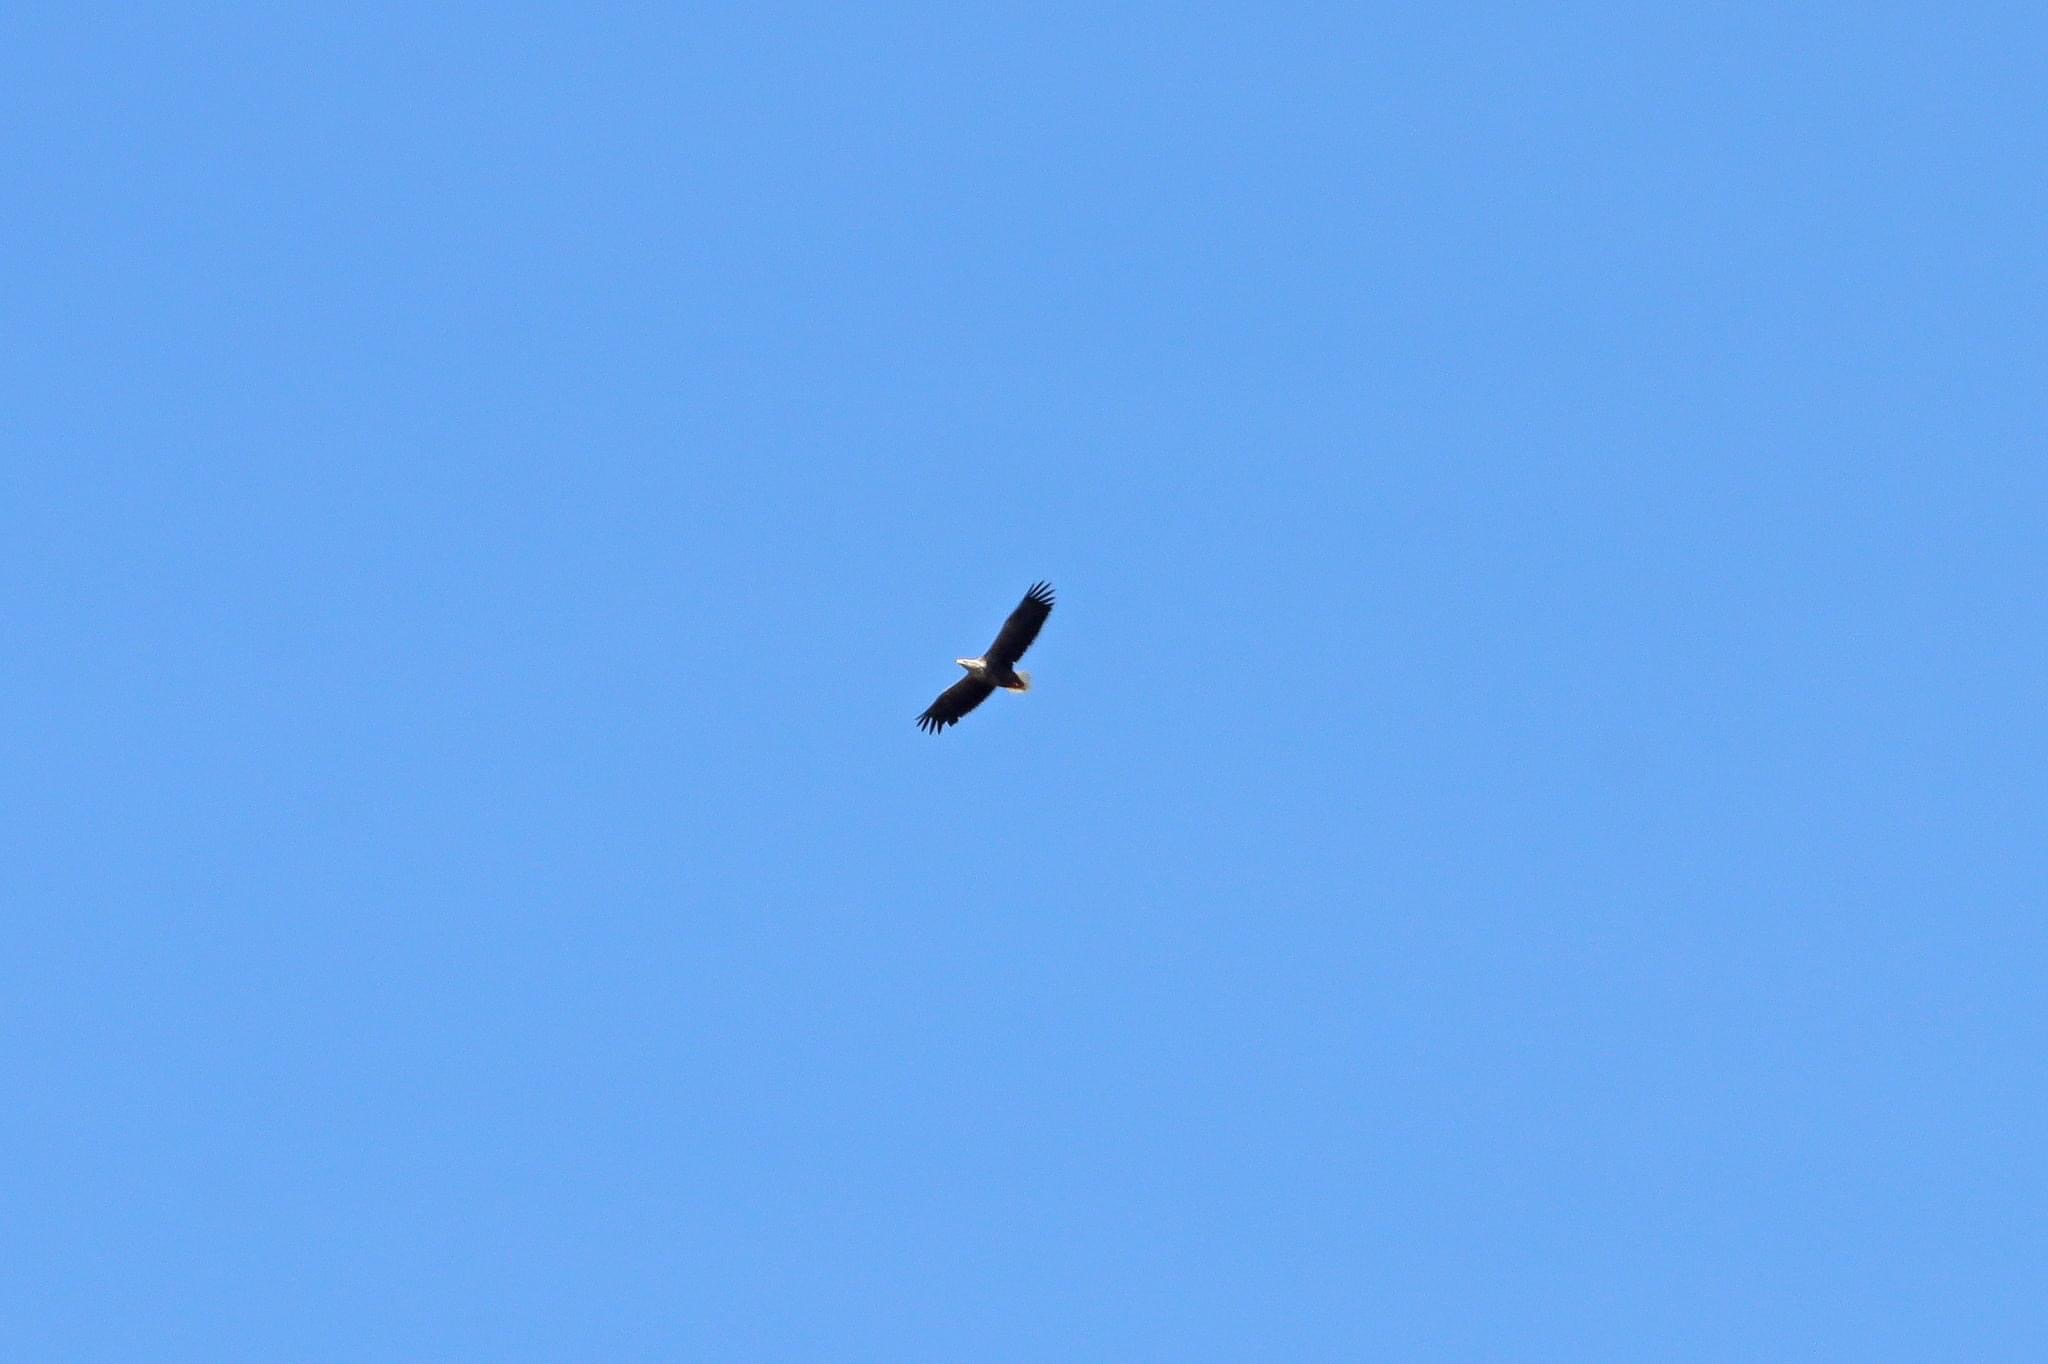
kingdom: Animalia
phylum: Chordata
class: Aves
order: Accipitriformes
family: Accipitridae
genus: Haliaeetus
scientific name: Haliaeetus albicilla
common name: Havørn
